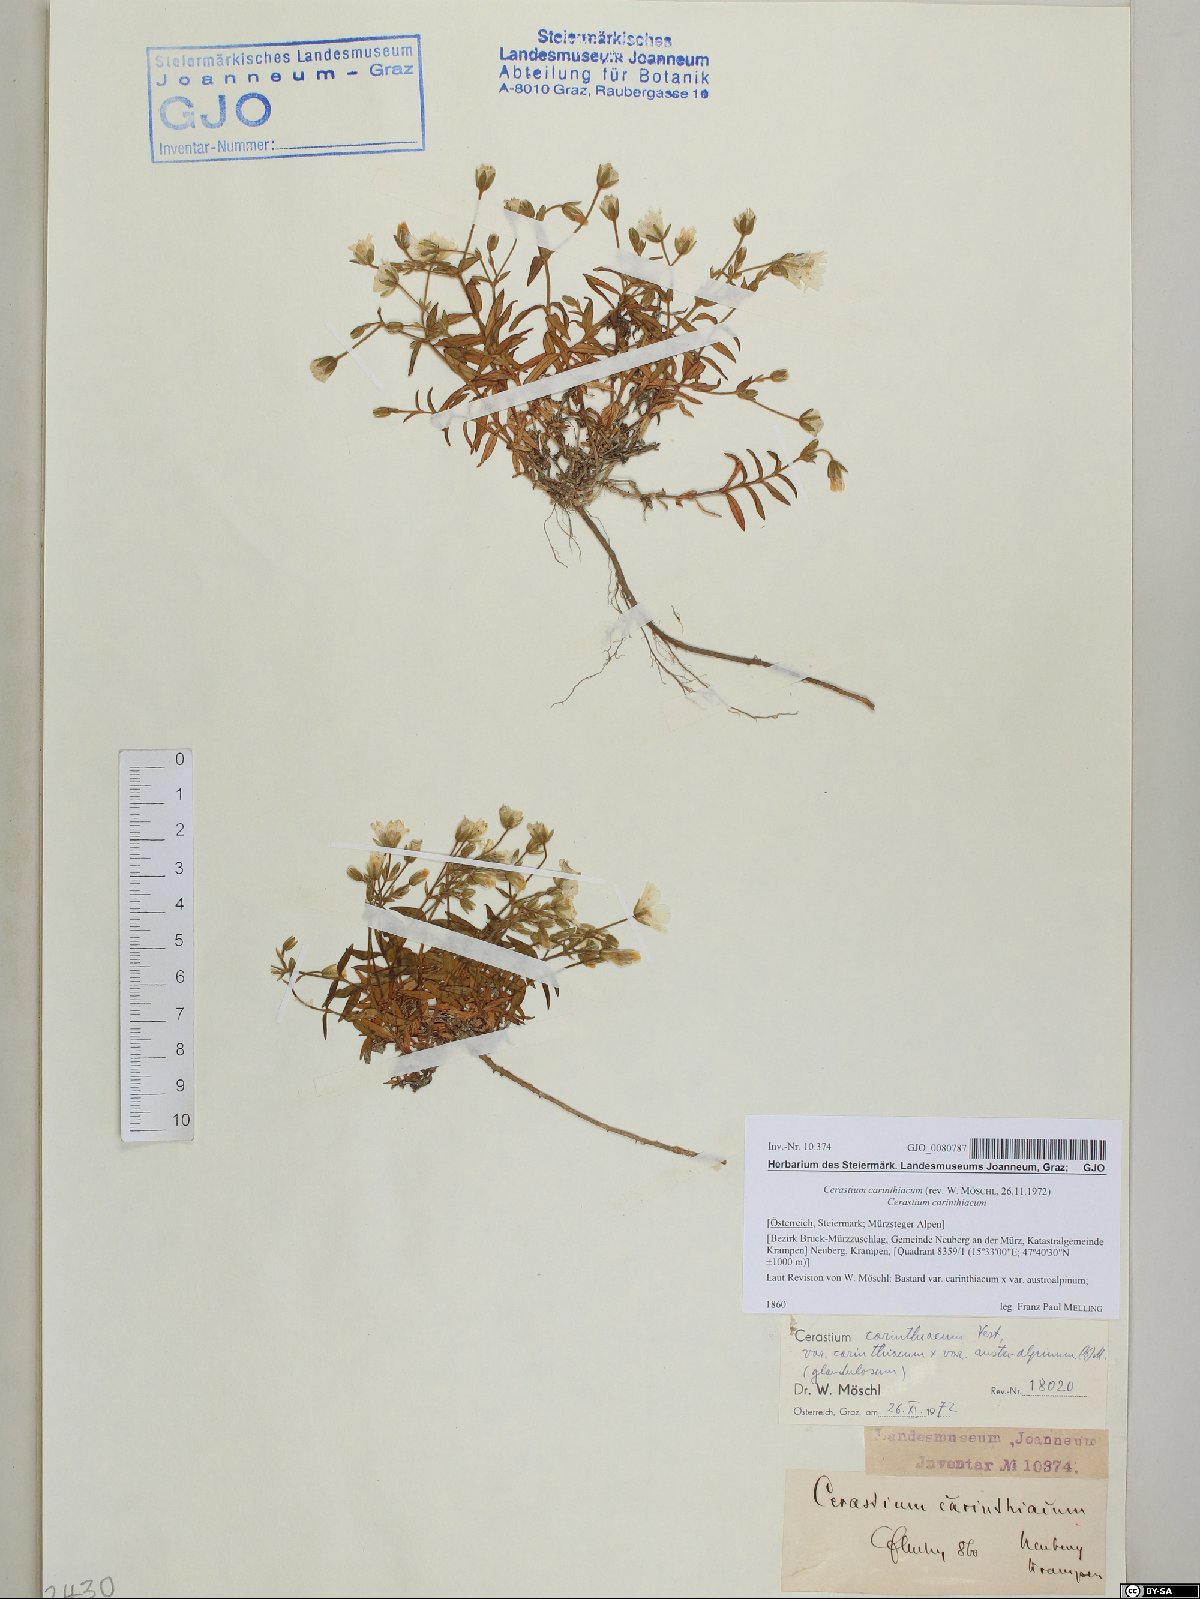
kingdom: Plantae
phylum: Tracheophyta
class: Magnoliopsida
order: Caryophyllales
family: Caryophyllaceae
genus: Cerastium
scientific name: Cerastium carinthiacum
